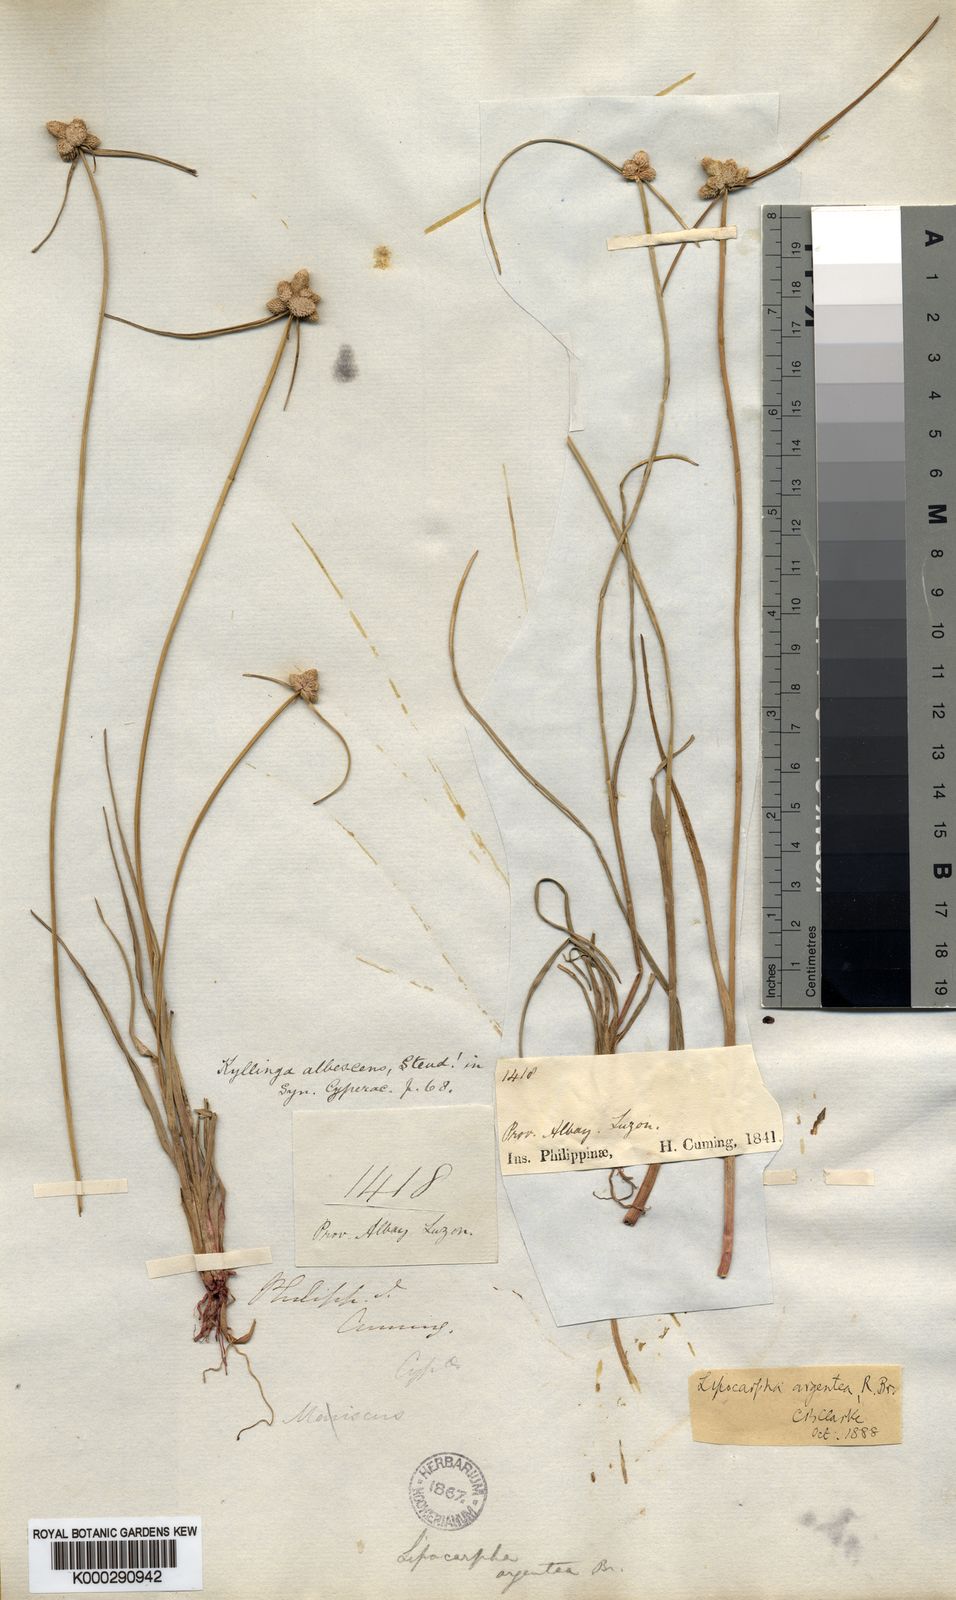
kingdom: Plantae
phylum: Tracheophyta
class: Liliopsida
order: Poales
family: Cyperaceae
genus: Cyperus
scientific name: Cyperus albescens
